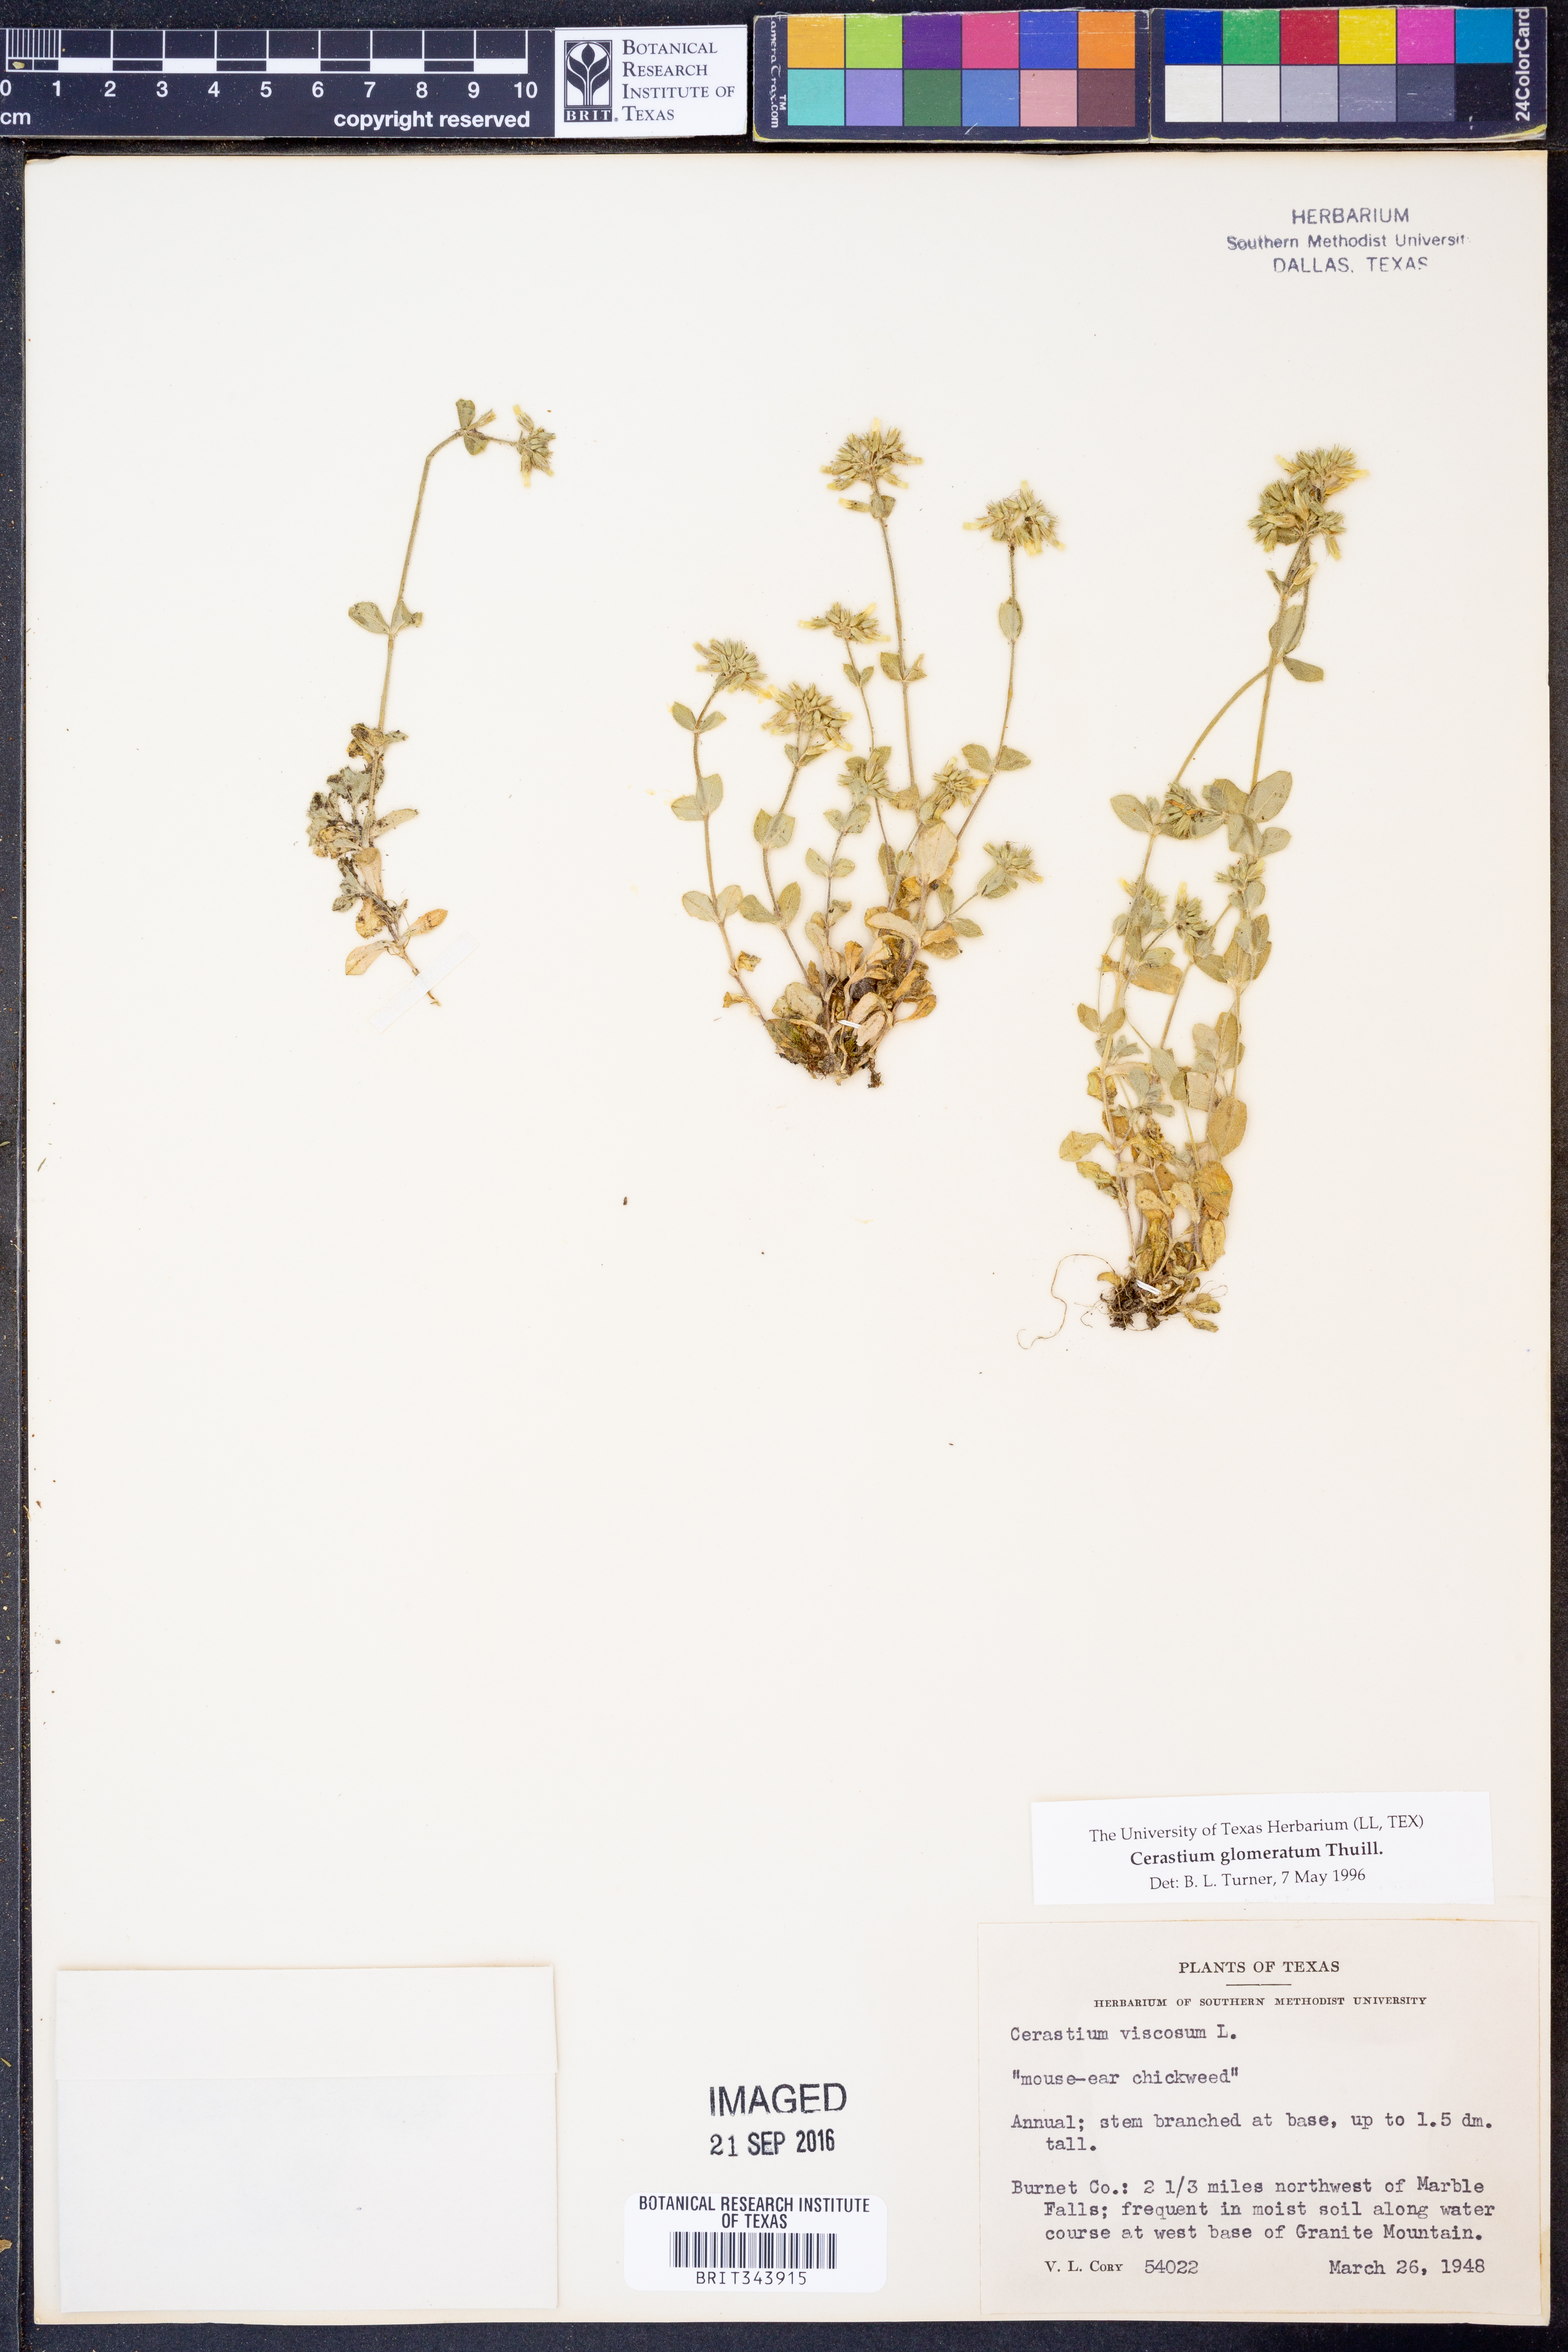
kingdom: Plantae
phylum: Tracheophyta
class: Magnoliopsida
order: Caryophyllales
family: Caryophyllaceae
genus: Cerastium
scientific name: Cerastium glomeratum
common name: Sticky chickweed
